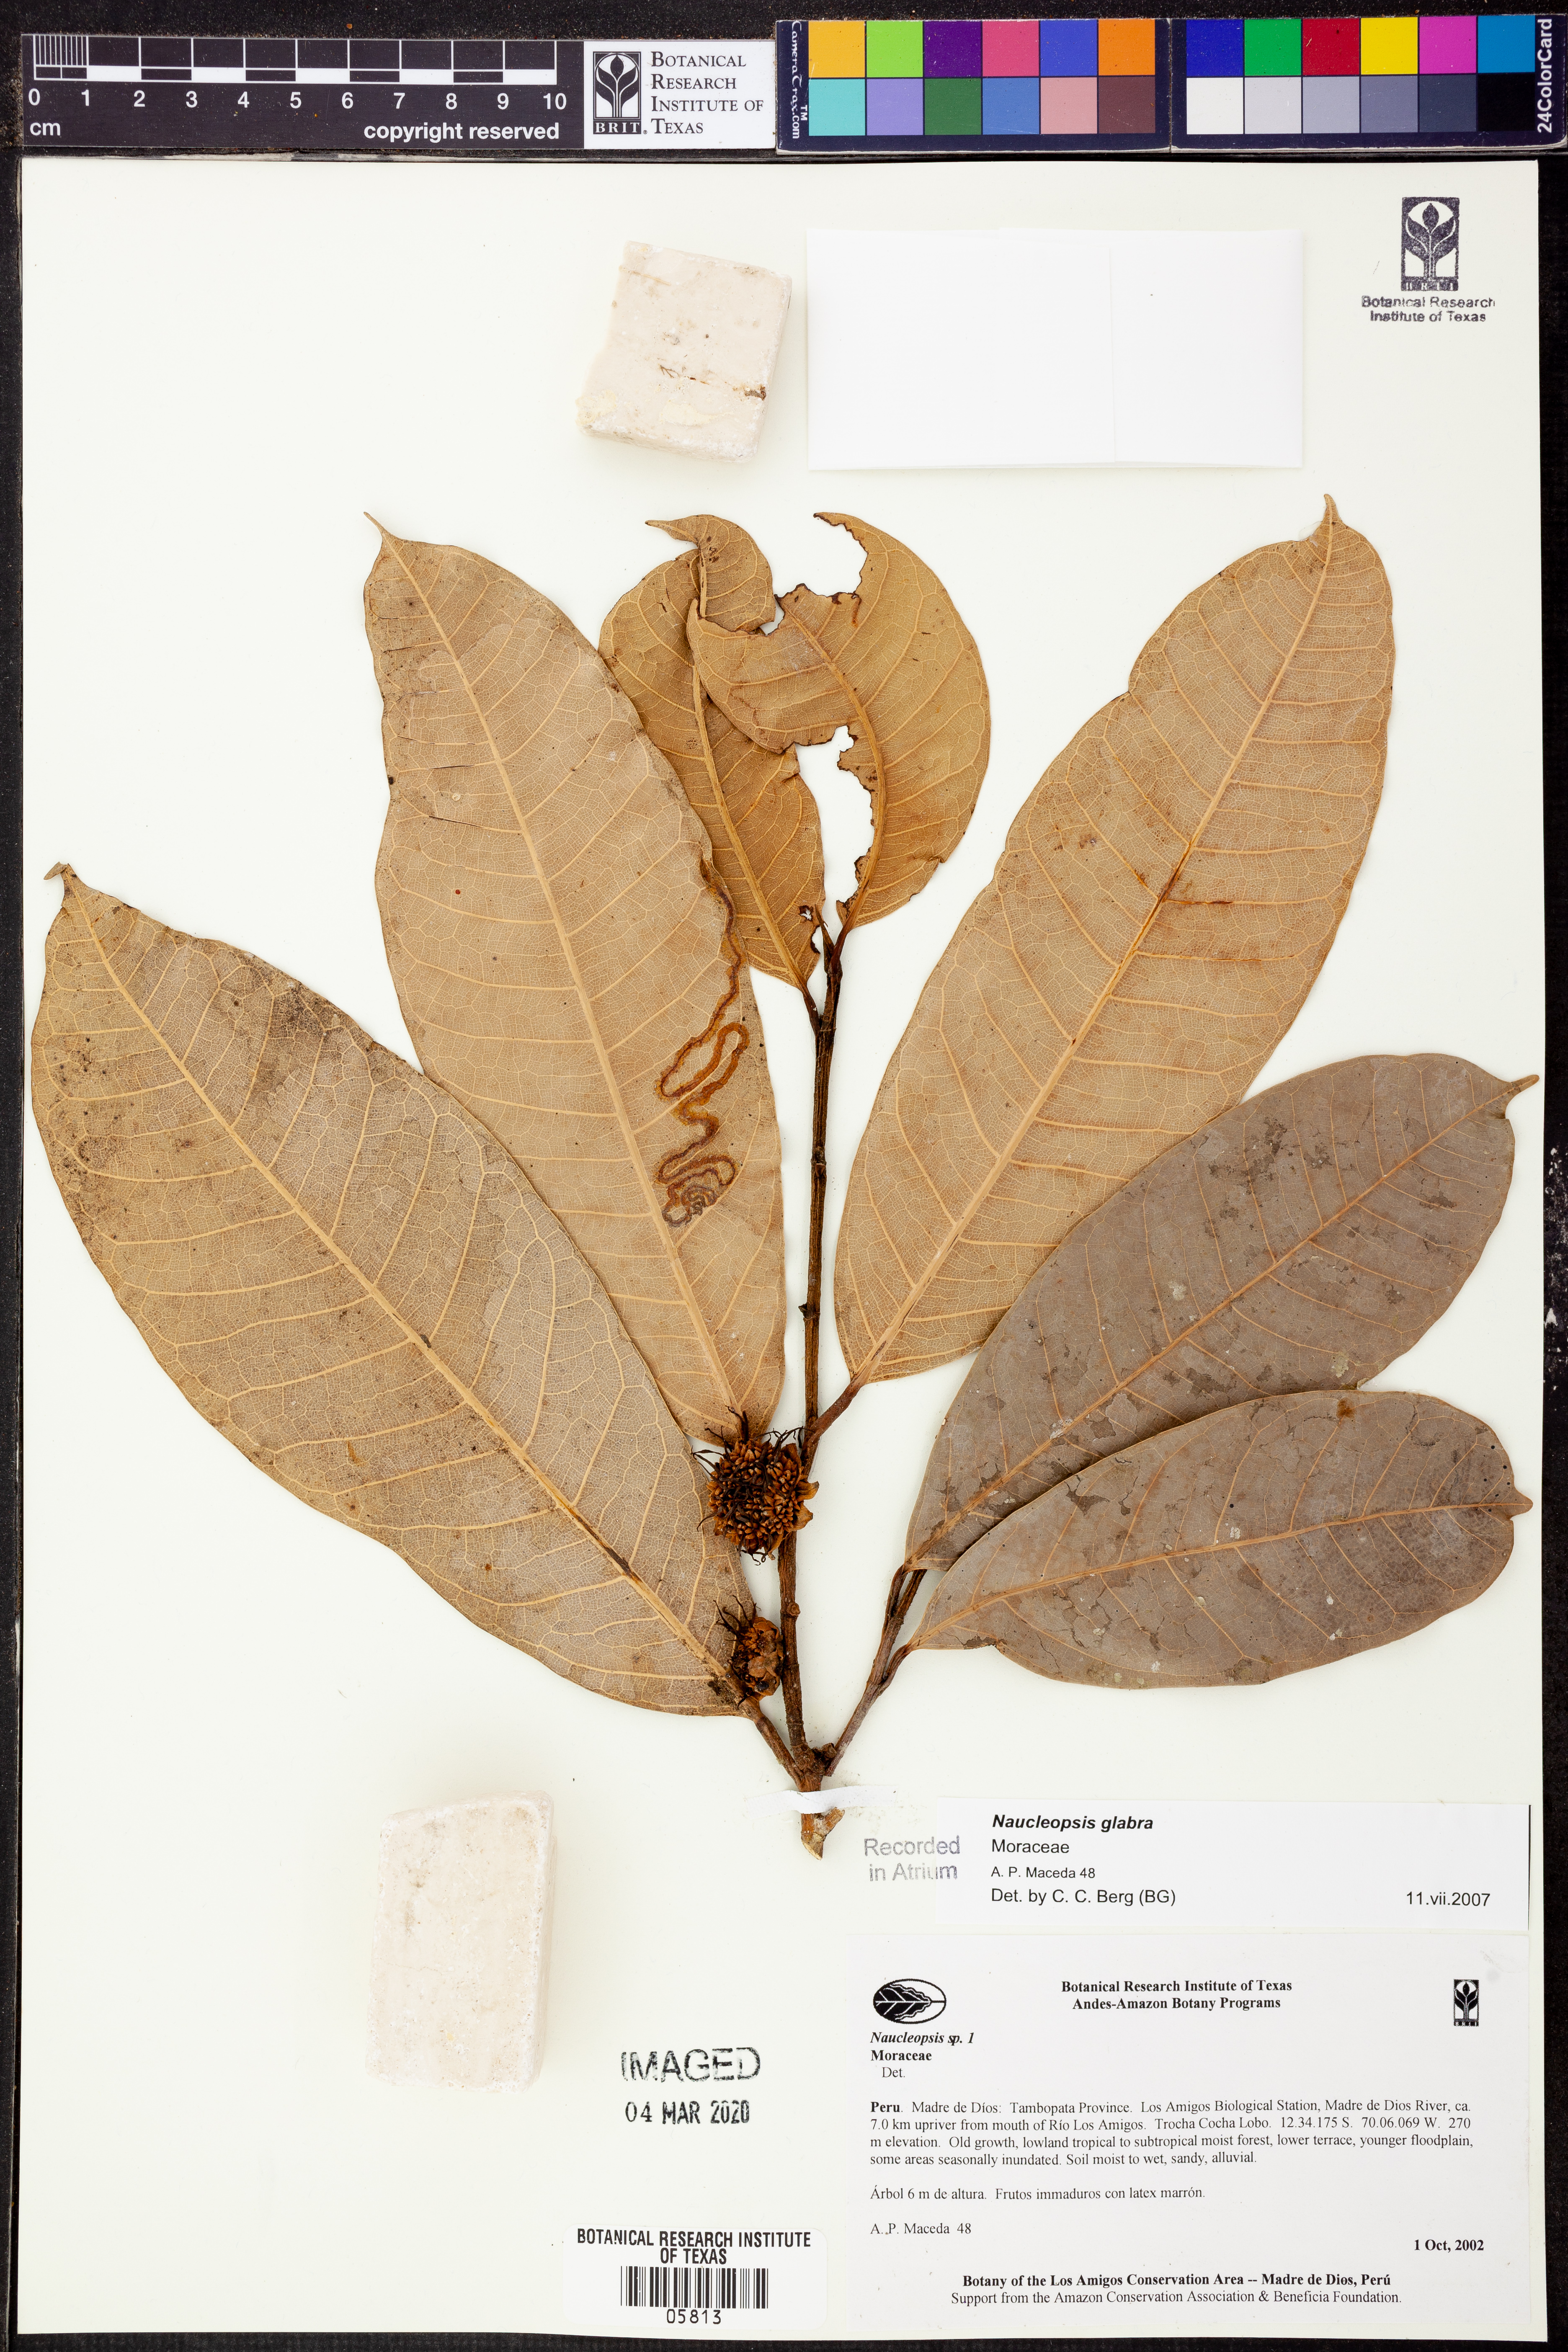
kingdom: Plantae
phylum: Tracheophyta
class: Magnoliopsida
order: Rosales
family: Moraceae
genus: Naucleopsis
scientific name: Naucleopsis glabra
